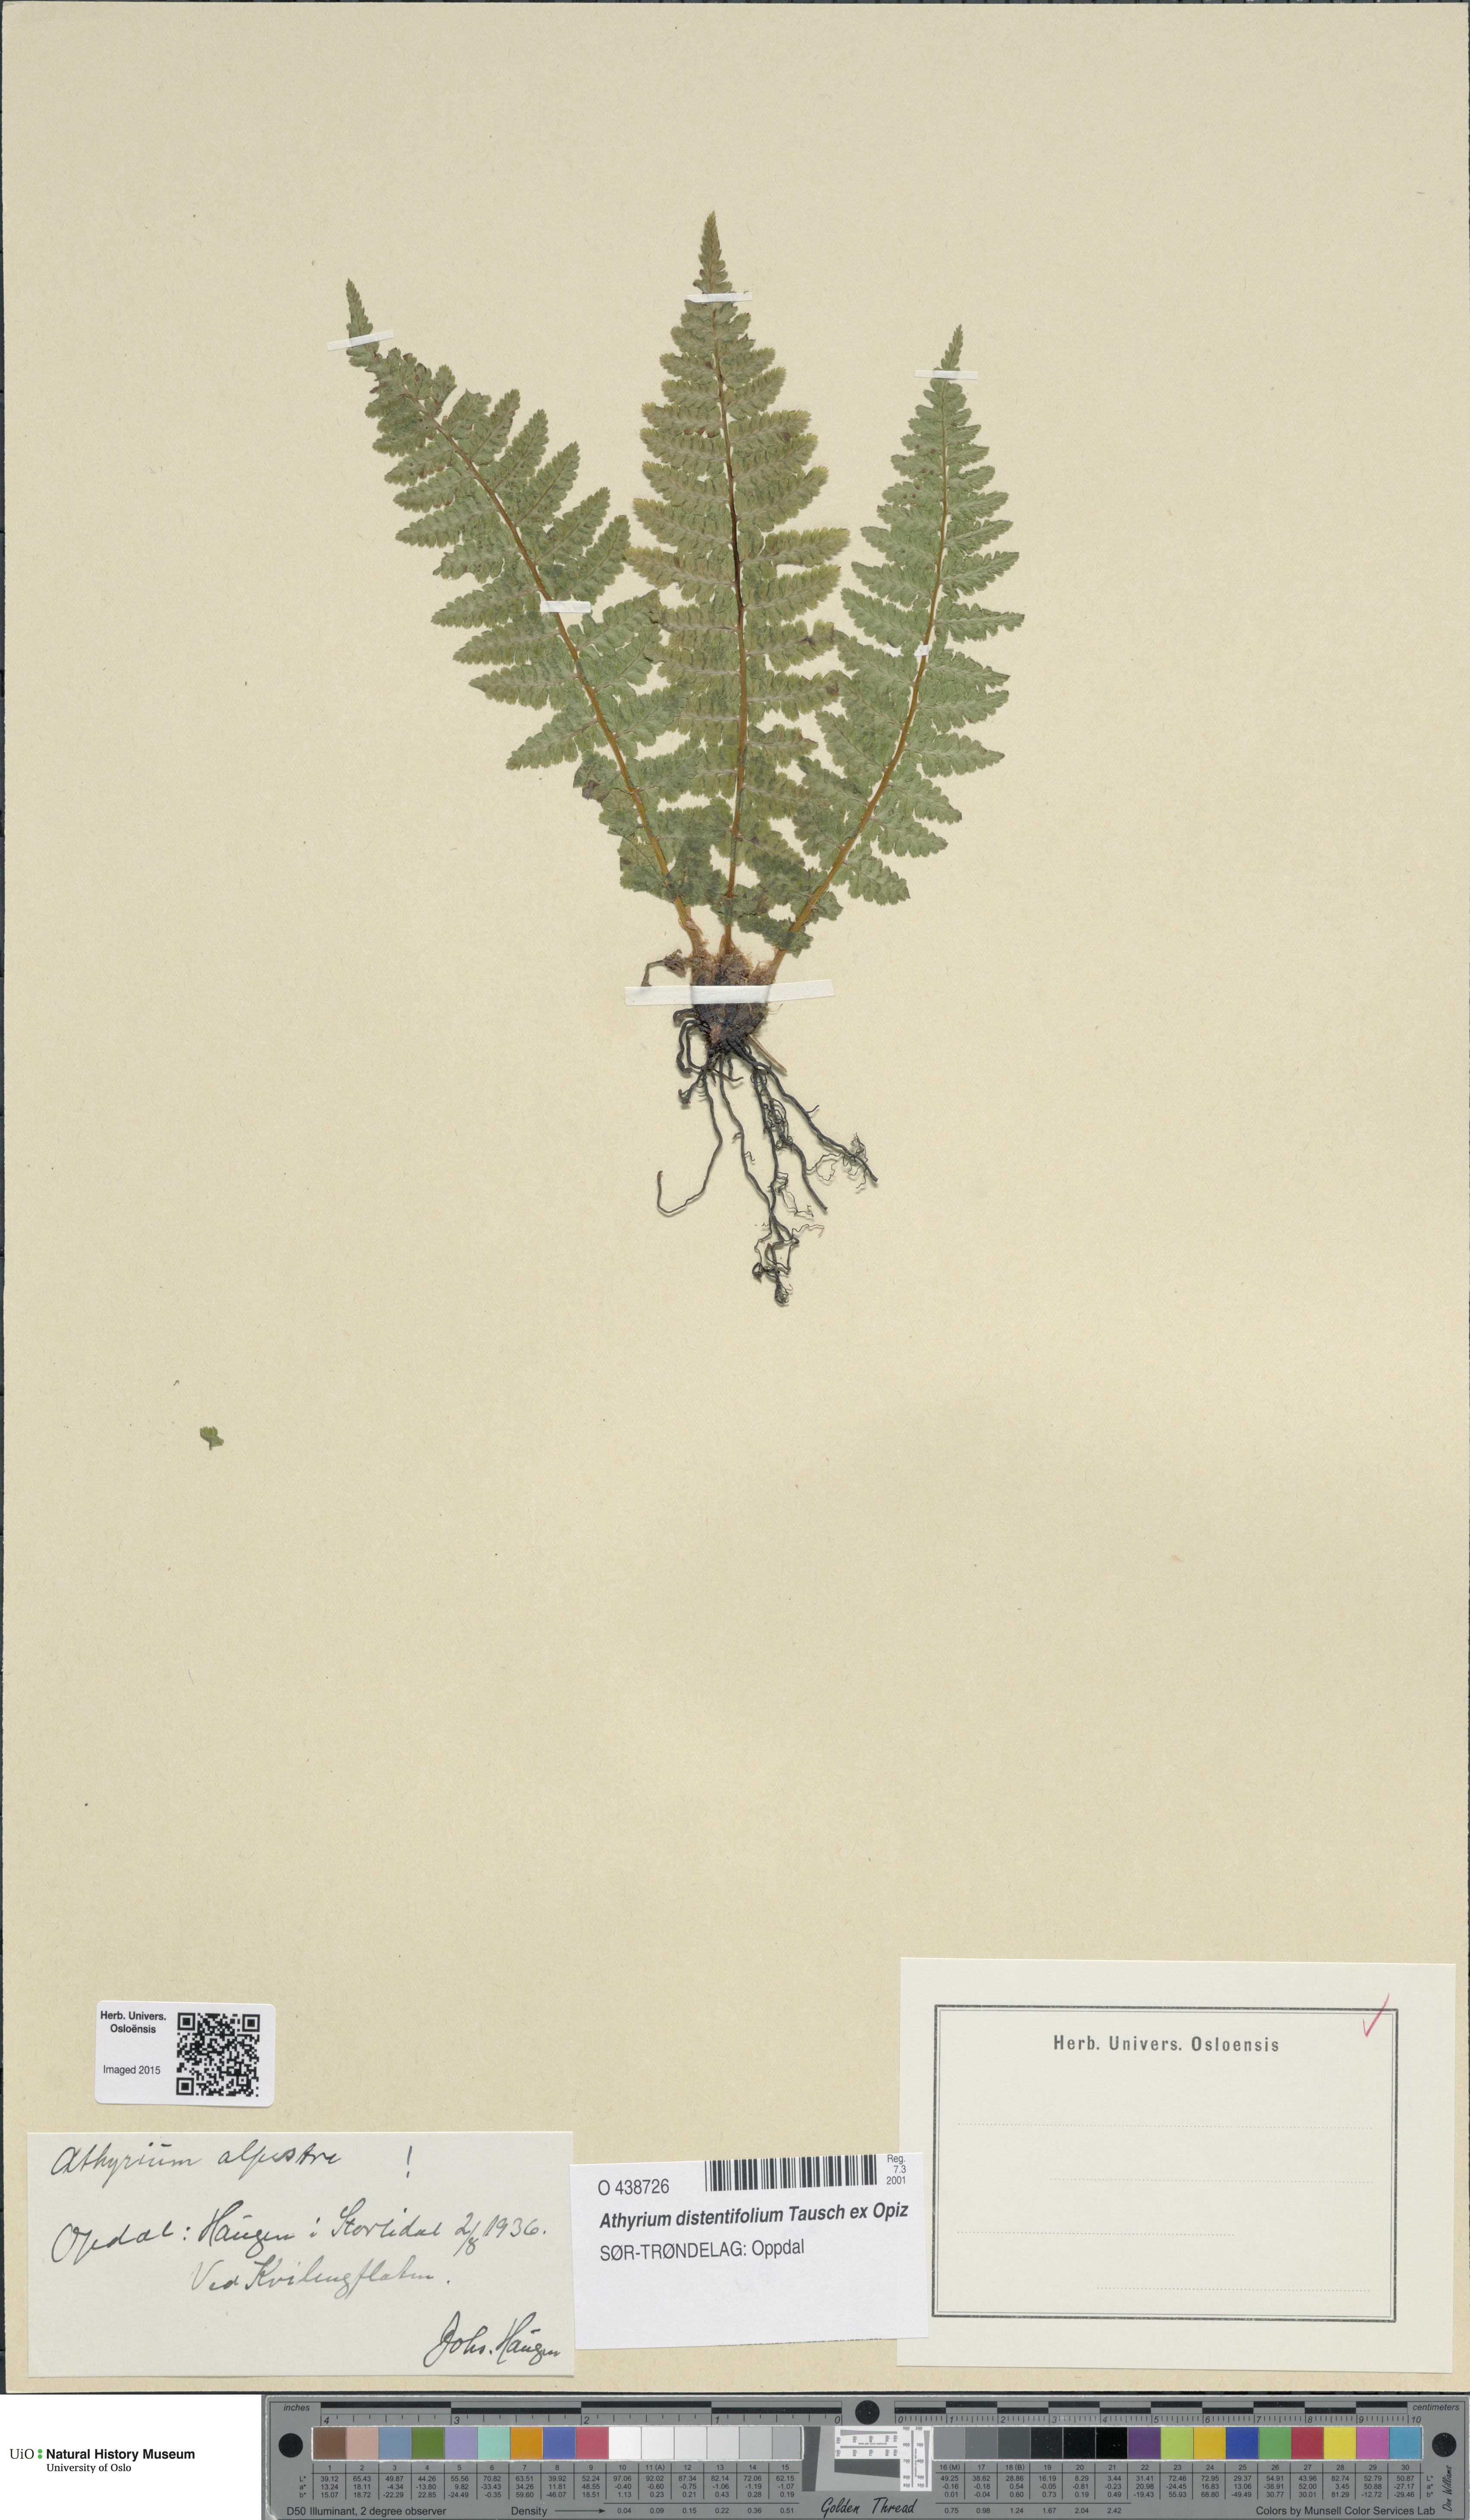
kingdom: Plantae
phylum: Tracheophyta
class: Polypodiopsida
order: Polypodiales
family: Athyriaceae
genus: Pseudathyrium
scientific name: Pseudathyrium alpestre
